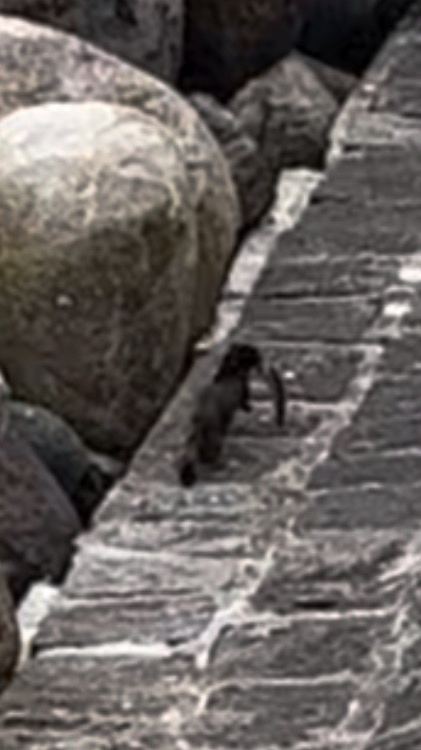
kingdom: Animalia
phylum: Chordata
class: Mammalia
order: Carnivora
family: Mustelidae
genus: Mustela
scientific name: Mustela vison
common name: Mink
